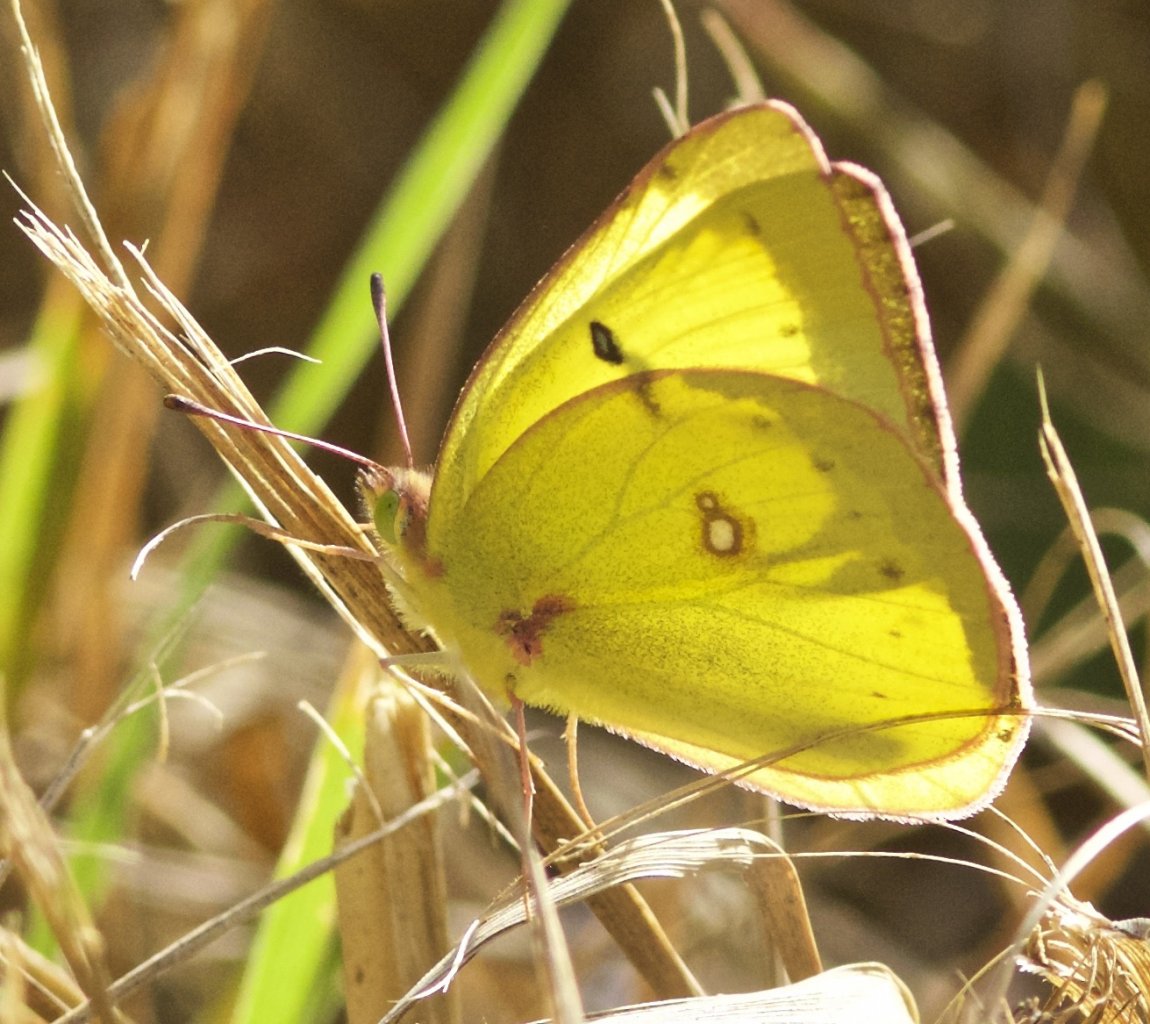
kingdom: Animalia
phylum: Arthropoda
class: Insecta
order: Lepidoptera
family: Pieridae
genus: Colias
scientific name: Colias philodice
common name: Clouded Sulphur
